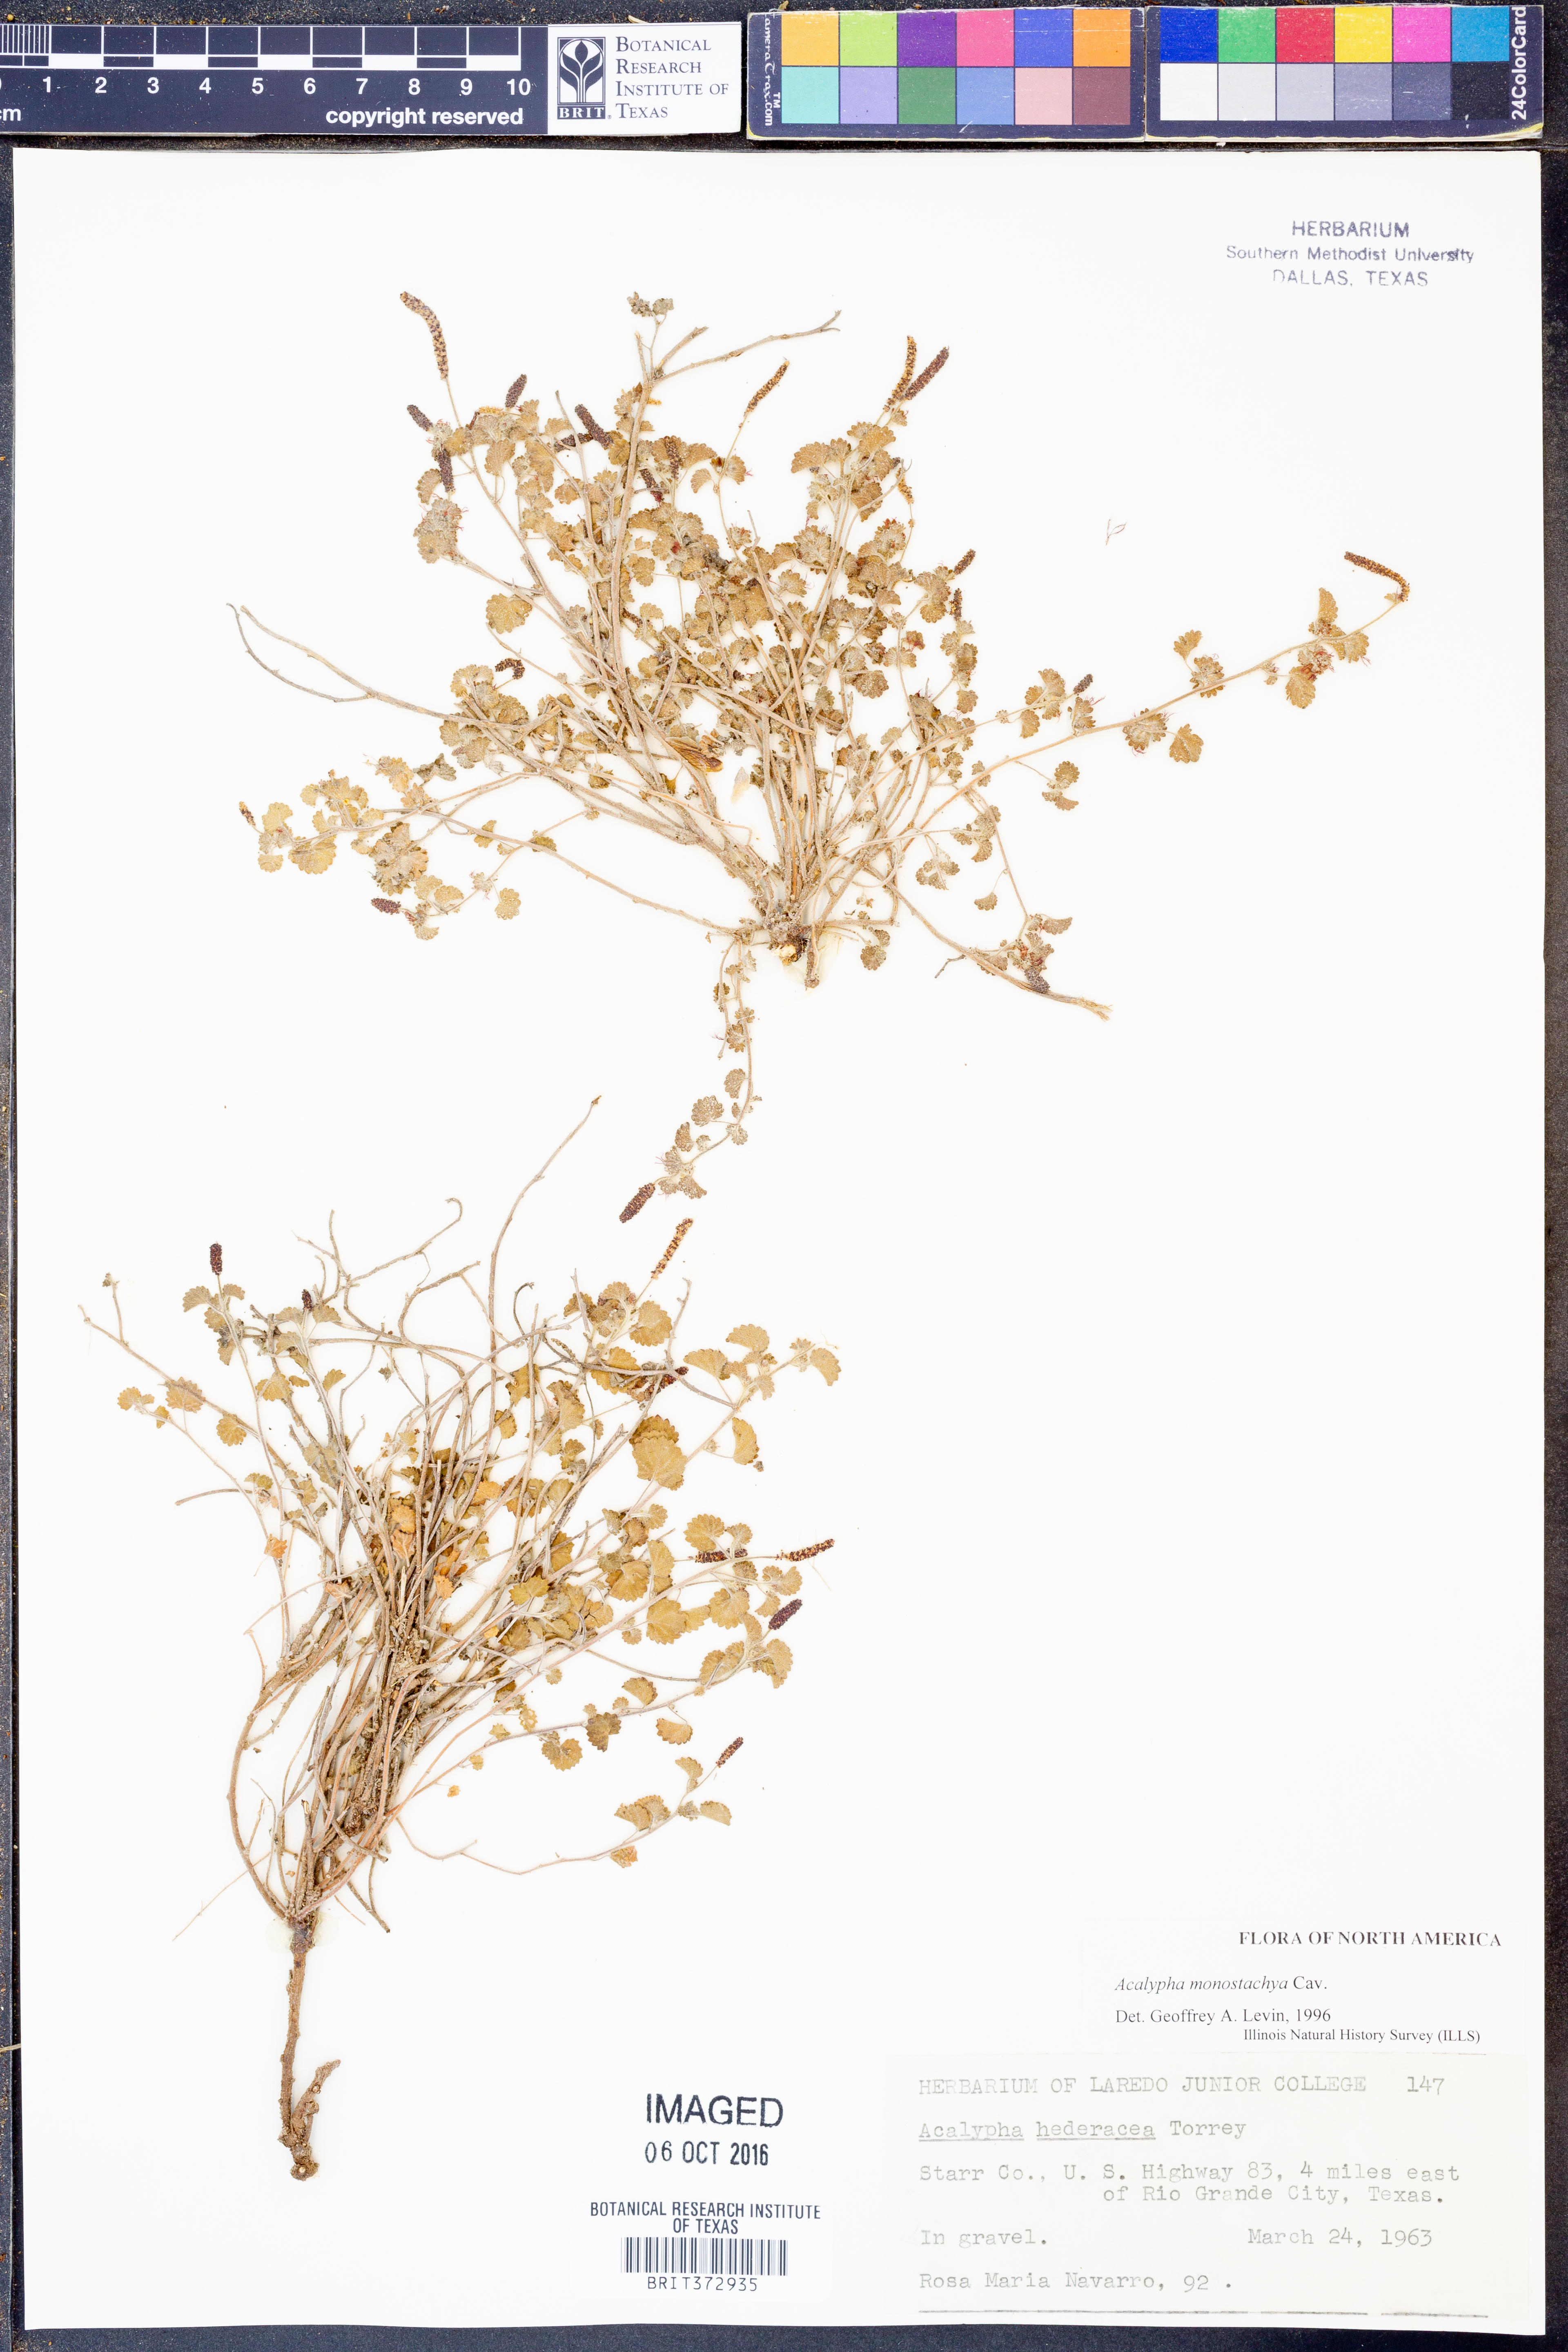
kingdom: Plantae
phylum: Tracheophyta
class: Magnoliopsida
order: Malpighiales
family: Euphorbiaceae
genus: Acalypha
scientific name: Acalypha monostachya
